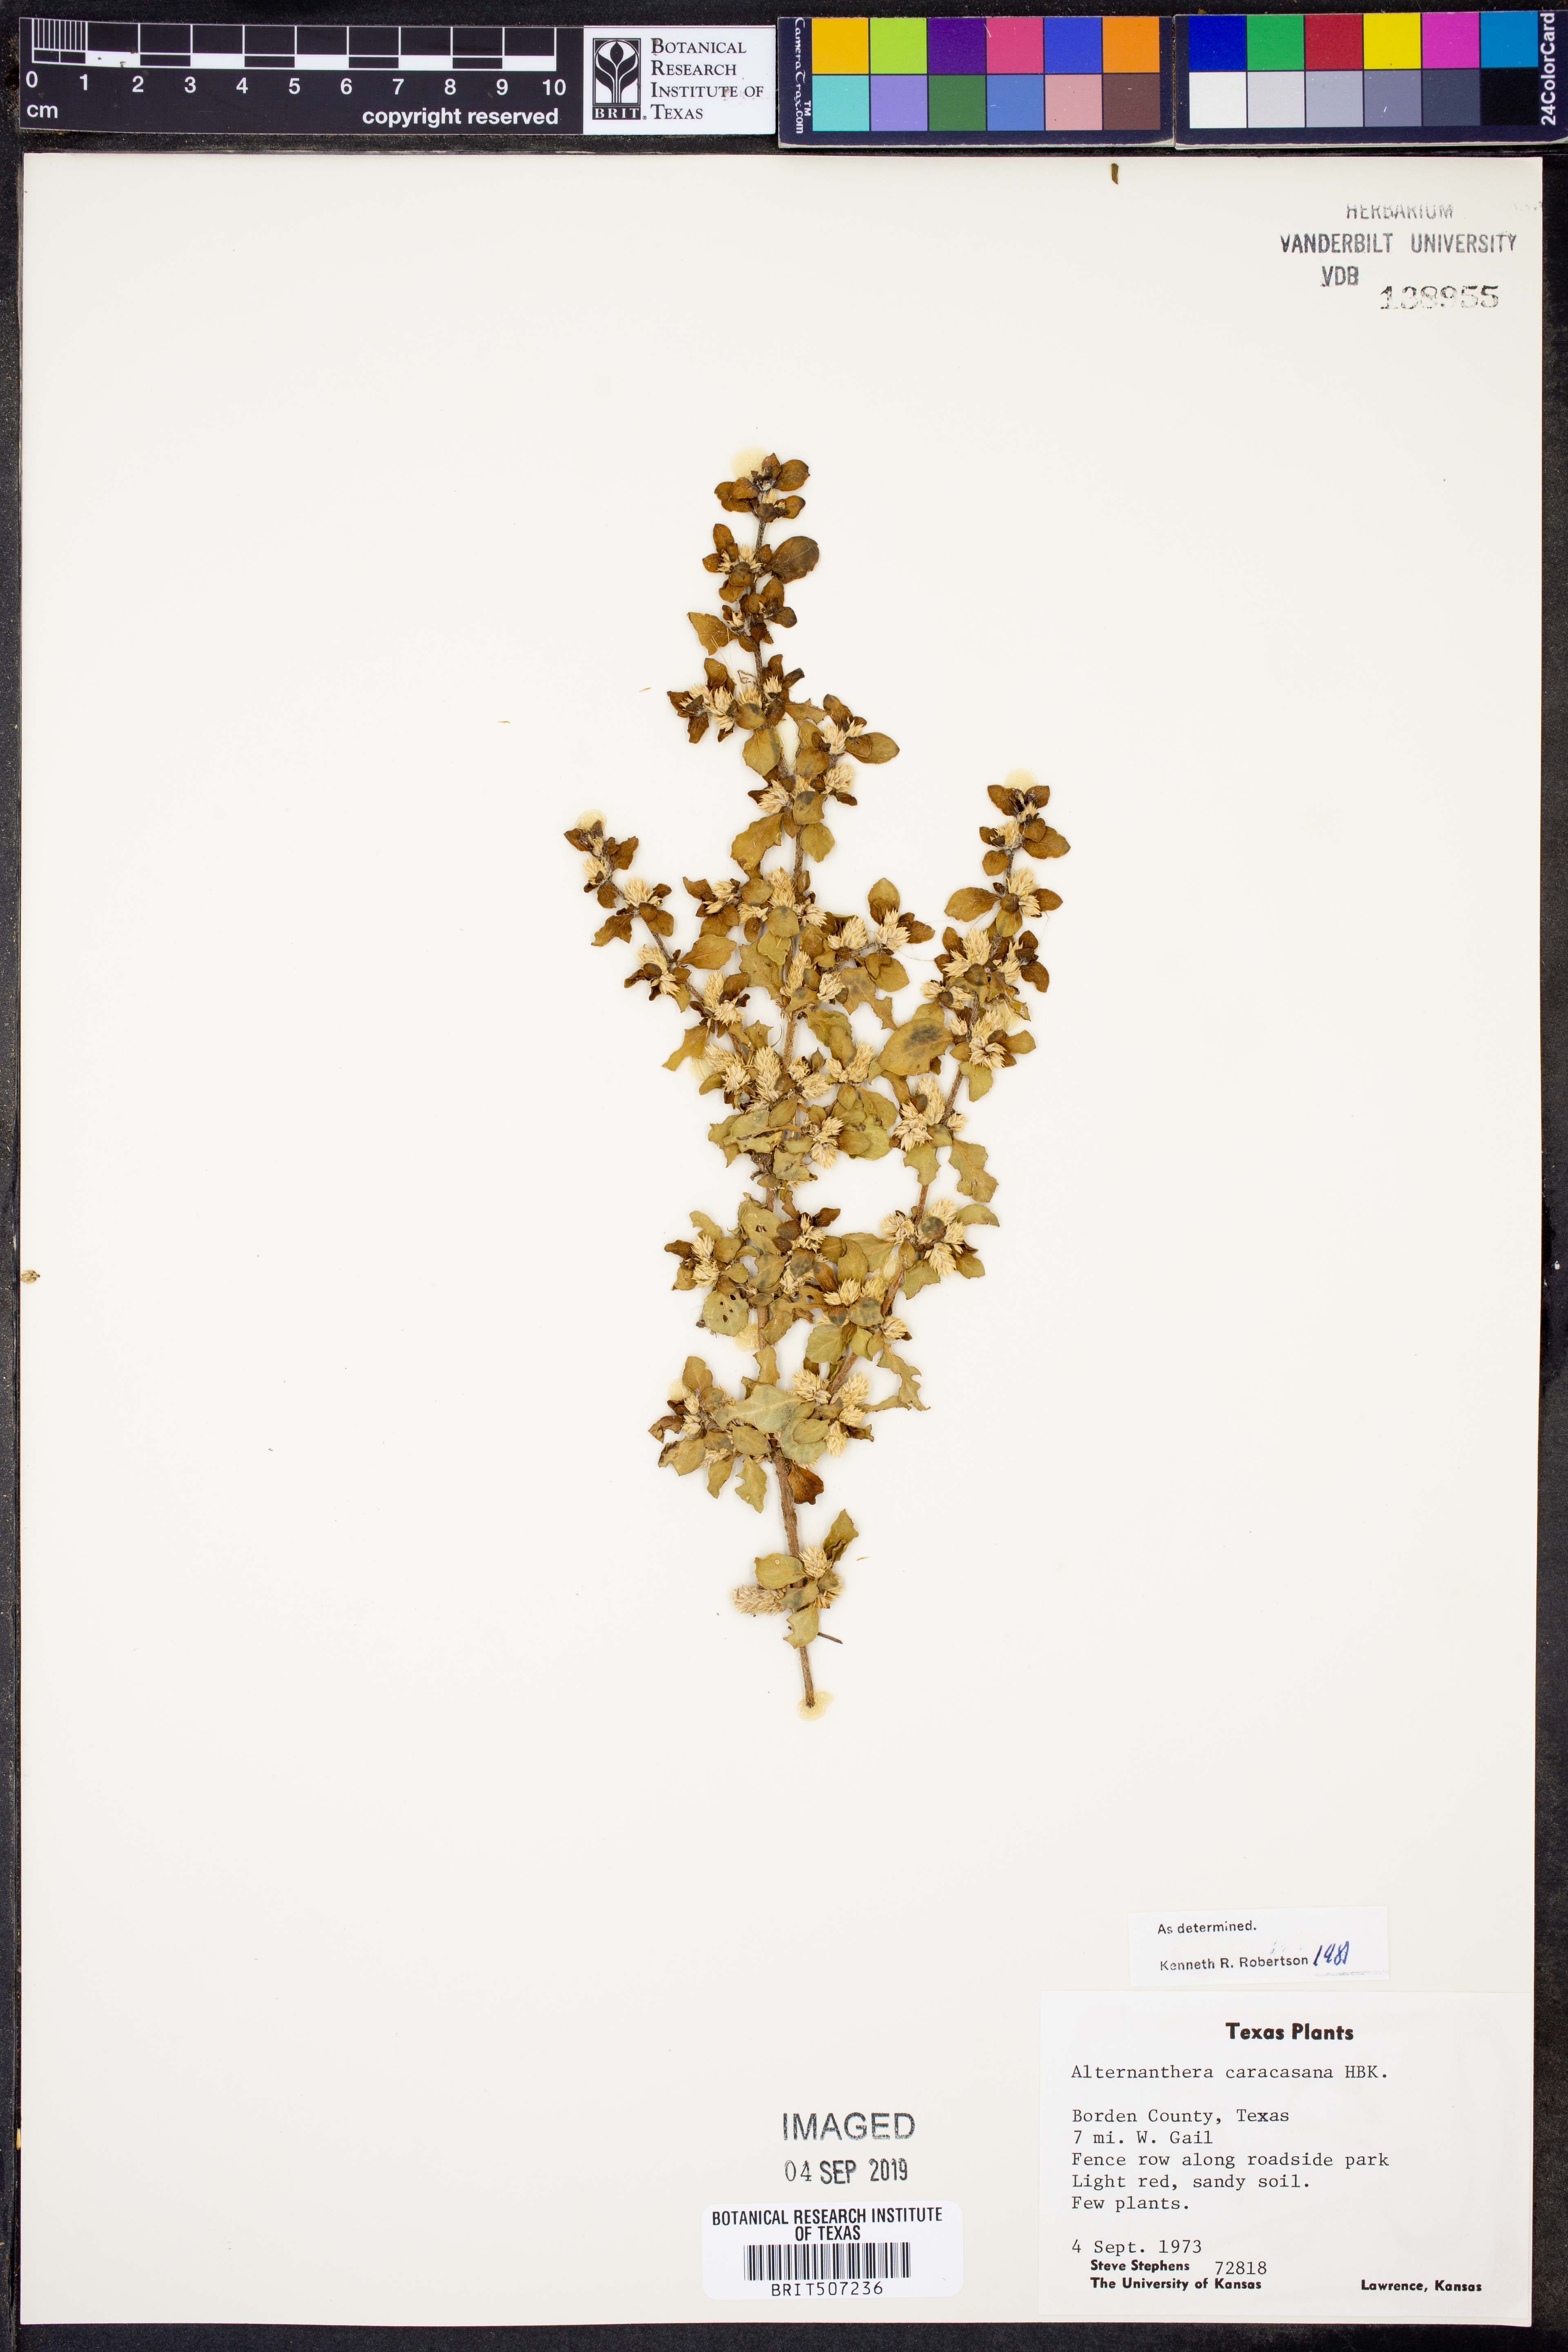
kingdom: Plantae
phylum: Tracheophyta
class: Magnoliopsida
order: Caryophyllales
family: Amaranthaceae
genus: Alternanthera
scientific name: Alternanthera caracasana
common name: Washerwoman
